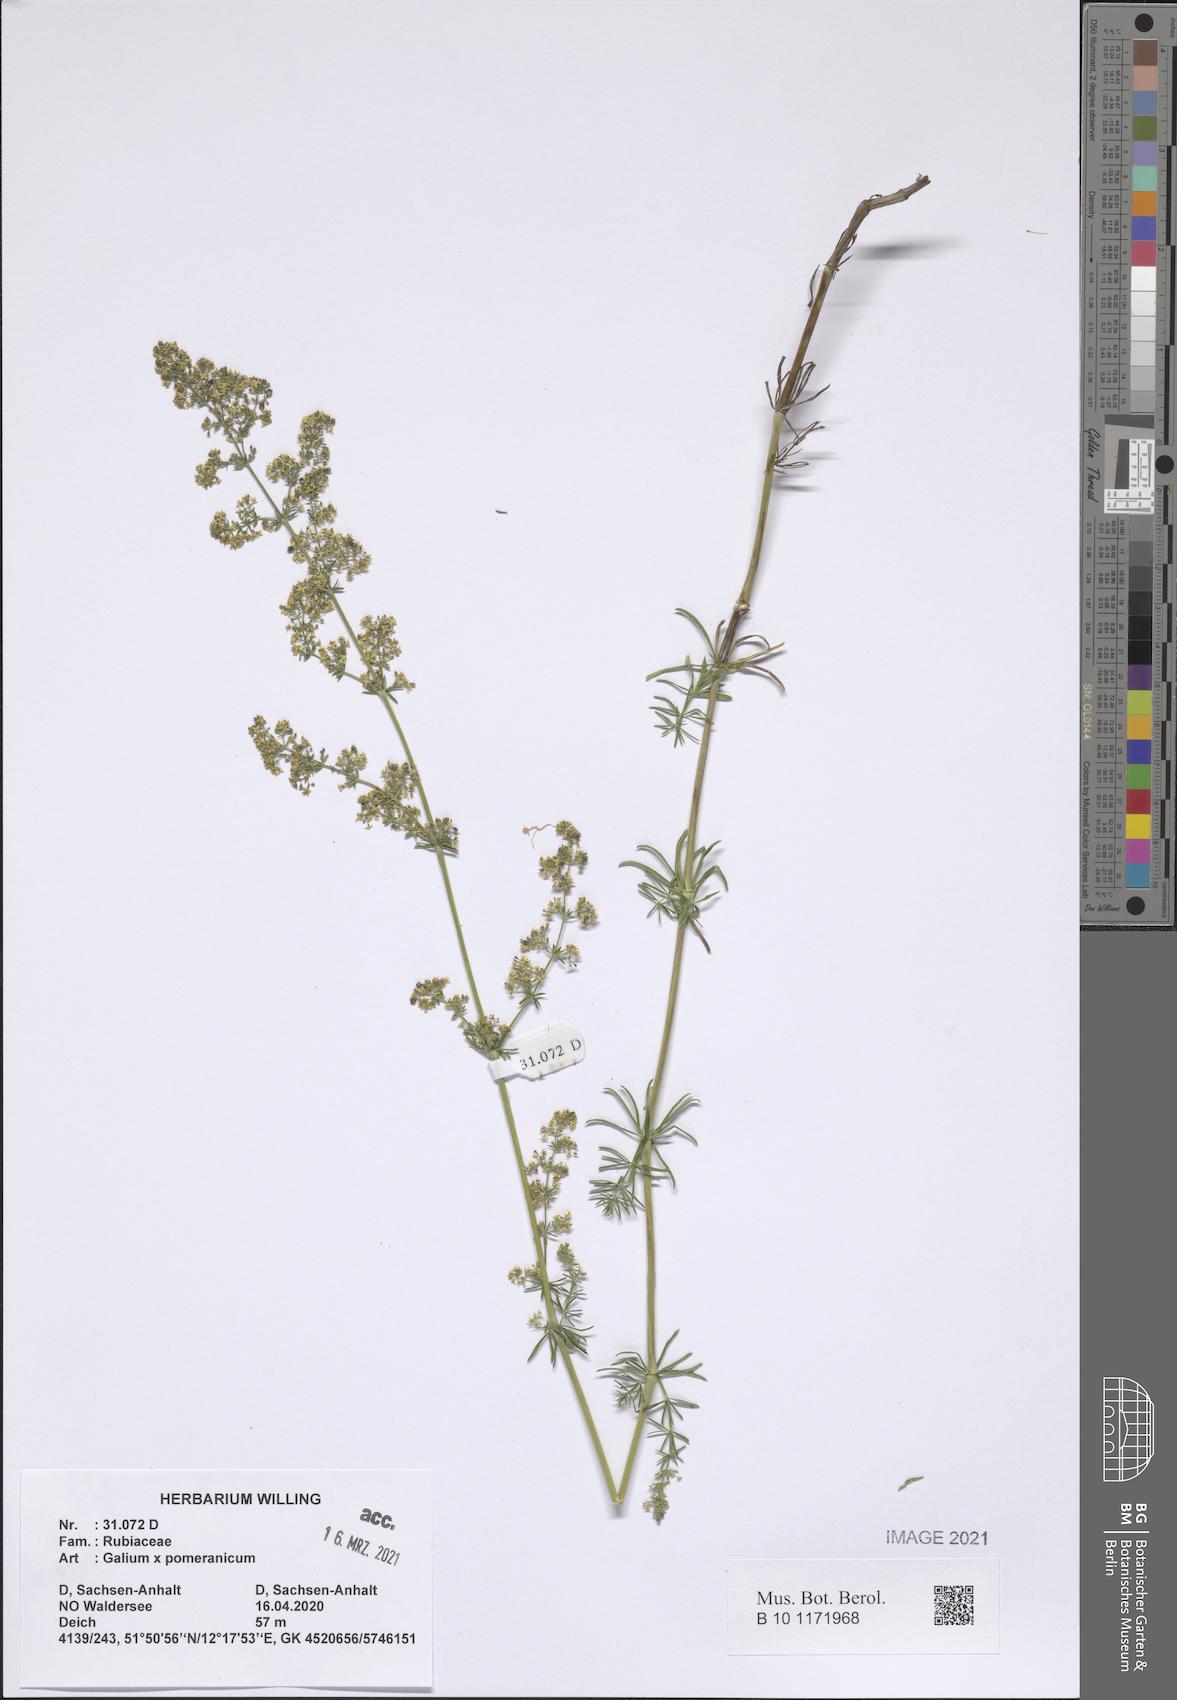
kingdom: Plantae
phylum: Tracheophyta
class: Magnoliopsida
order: Gentianales
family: Rubiaceae
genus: Galium
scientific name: Galium pomeranicum
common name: Bedstraw
